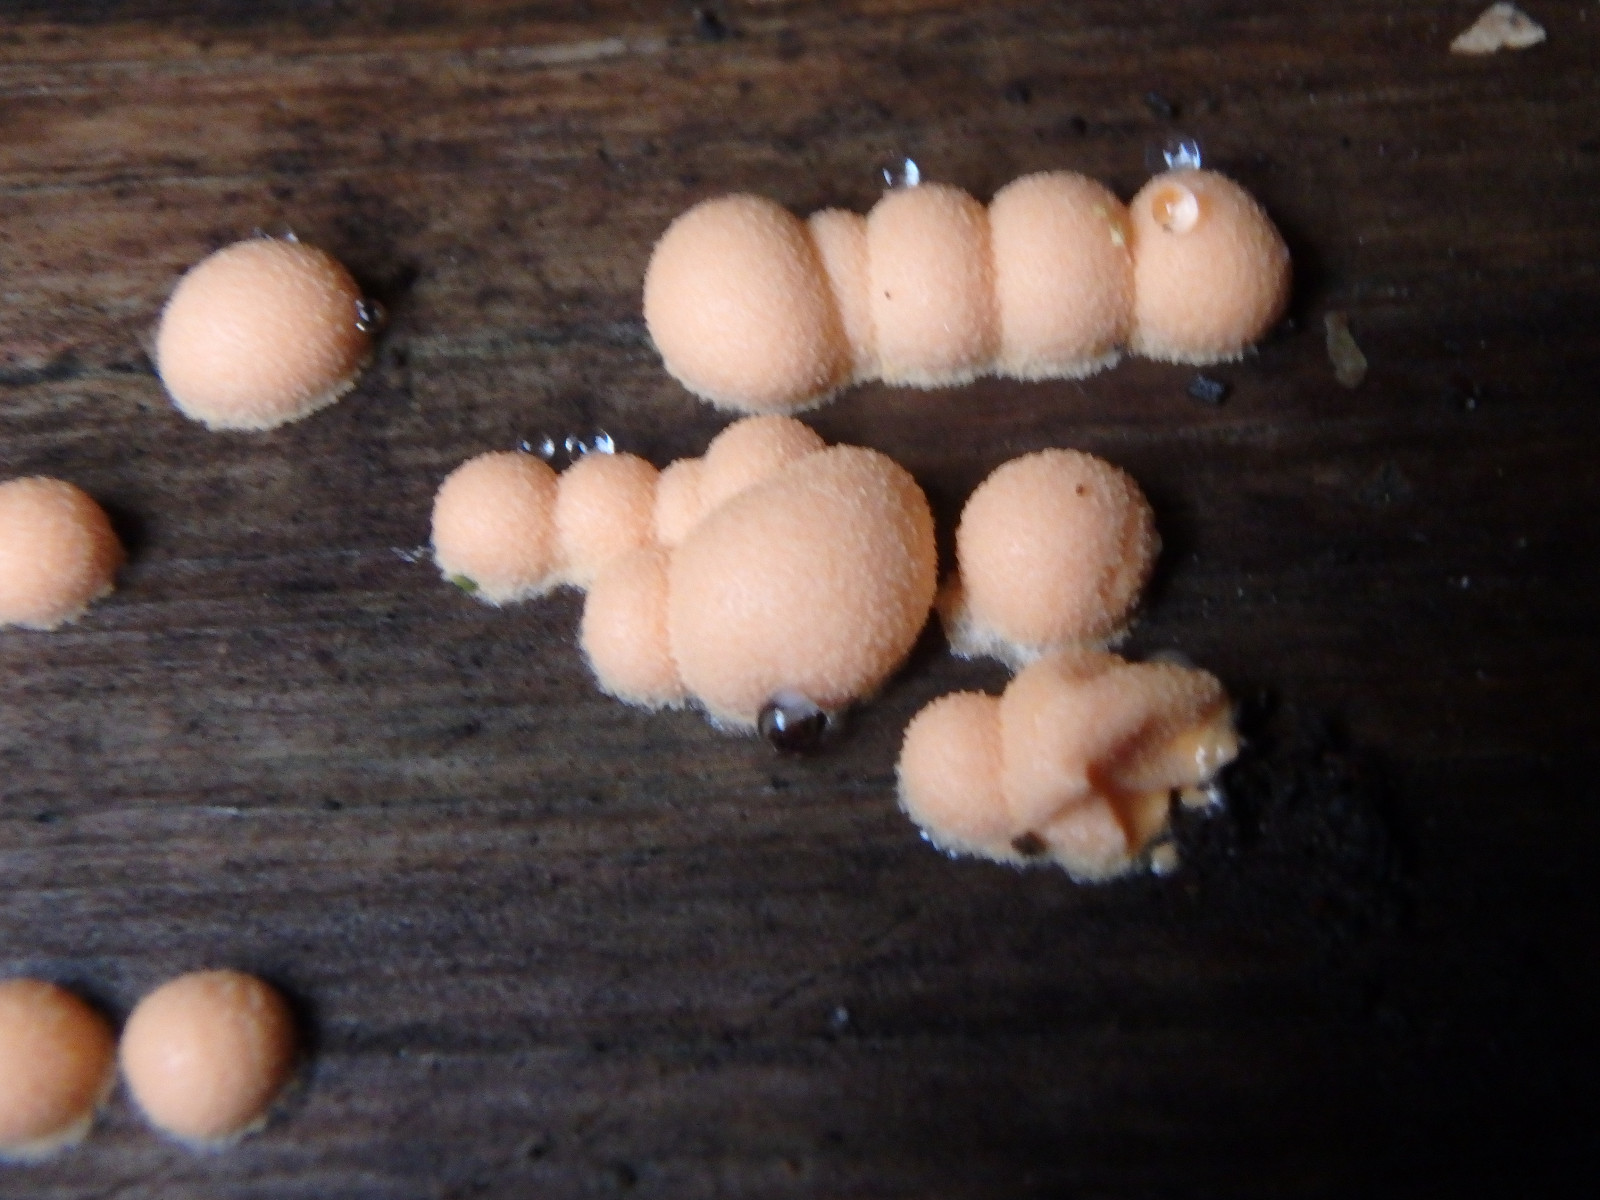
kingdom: Protozoa
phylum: Mycetozoa
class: Myxomycetes
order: Cribrariales
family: Tubiferaceae
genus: Lycogala
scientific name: Lycogala epidendrum
